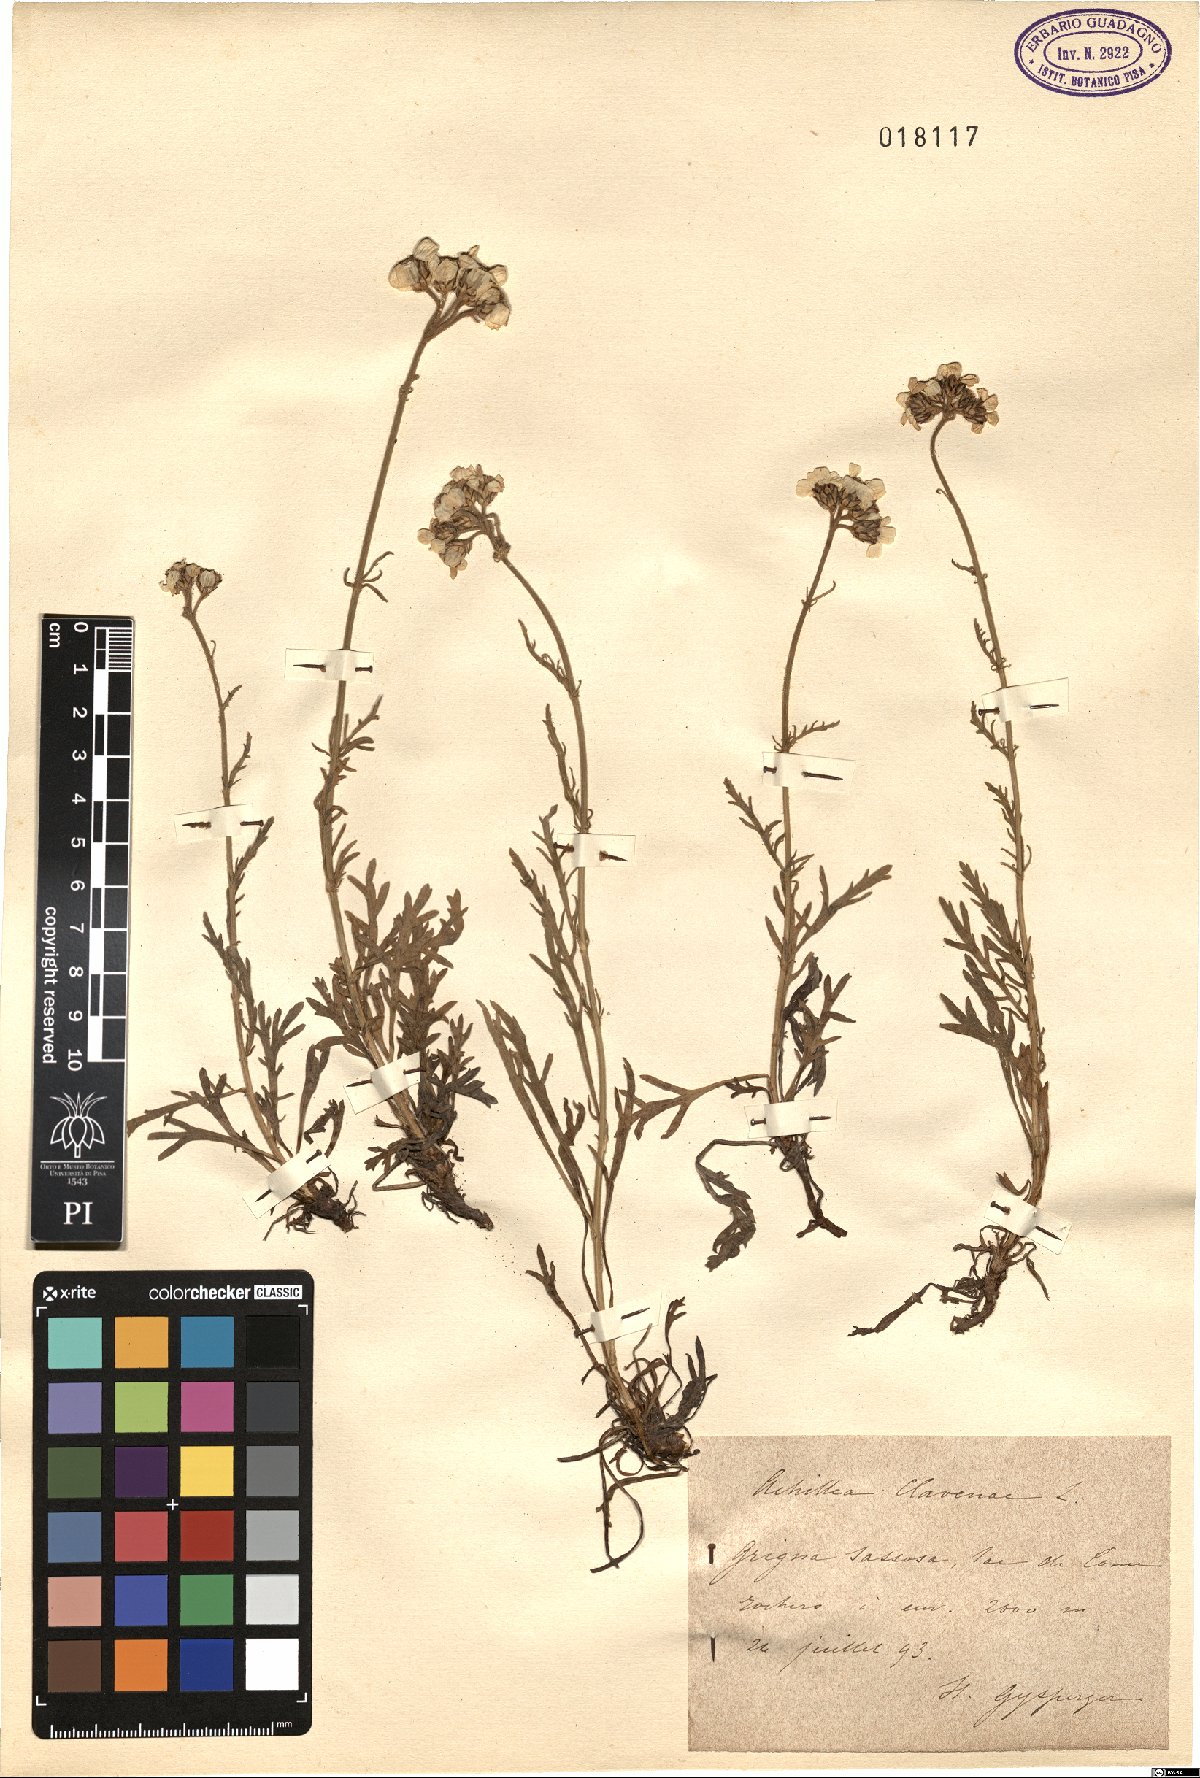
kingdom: Plantae
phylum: Tracheophyta
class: Magnoliopsida
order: Asterales
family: Asteraceae
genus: Achillea
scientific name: Achillea clavennae
